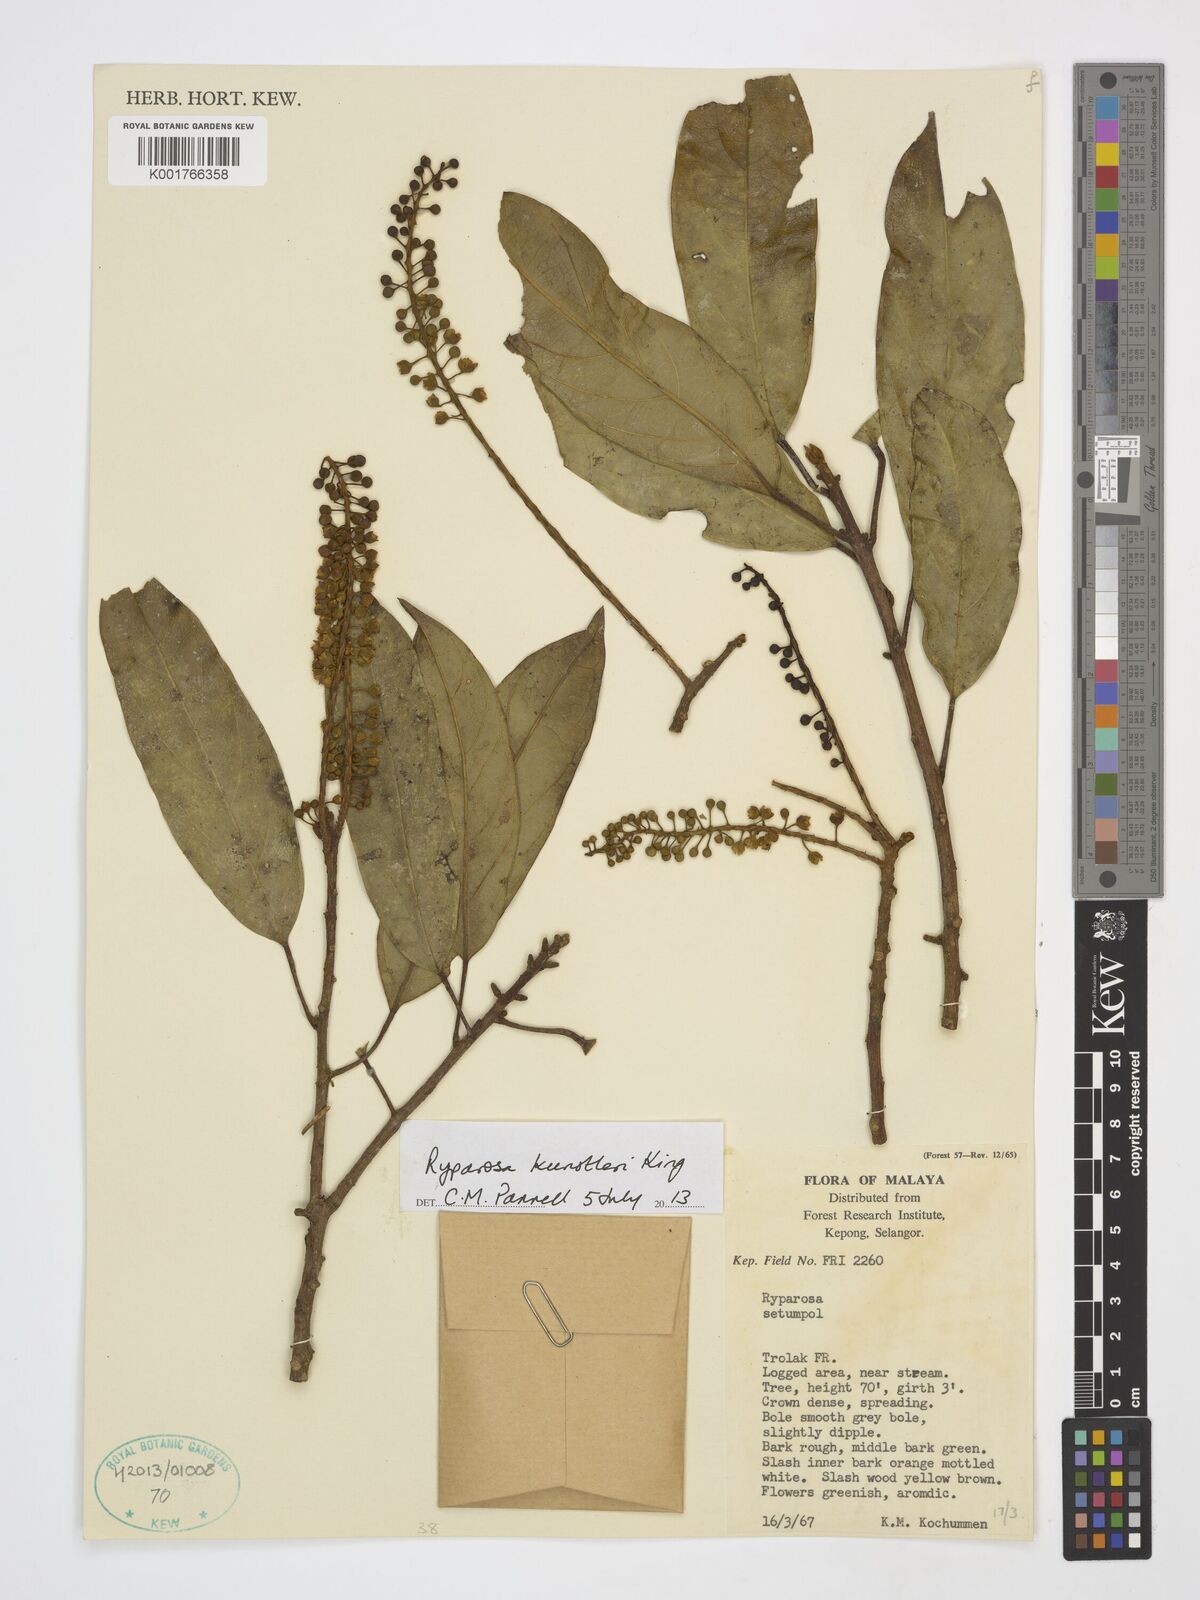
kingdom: Plantae
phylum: Tracheophyta
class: Magnoliopsida
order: Malpighiales
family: Achariaceae
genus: Ryparosa
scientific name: Ryparosa kunstleri
